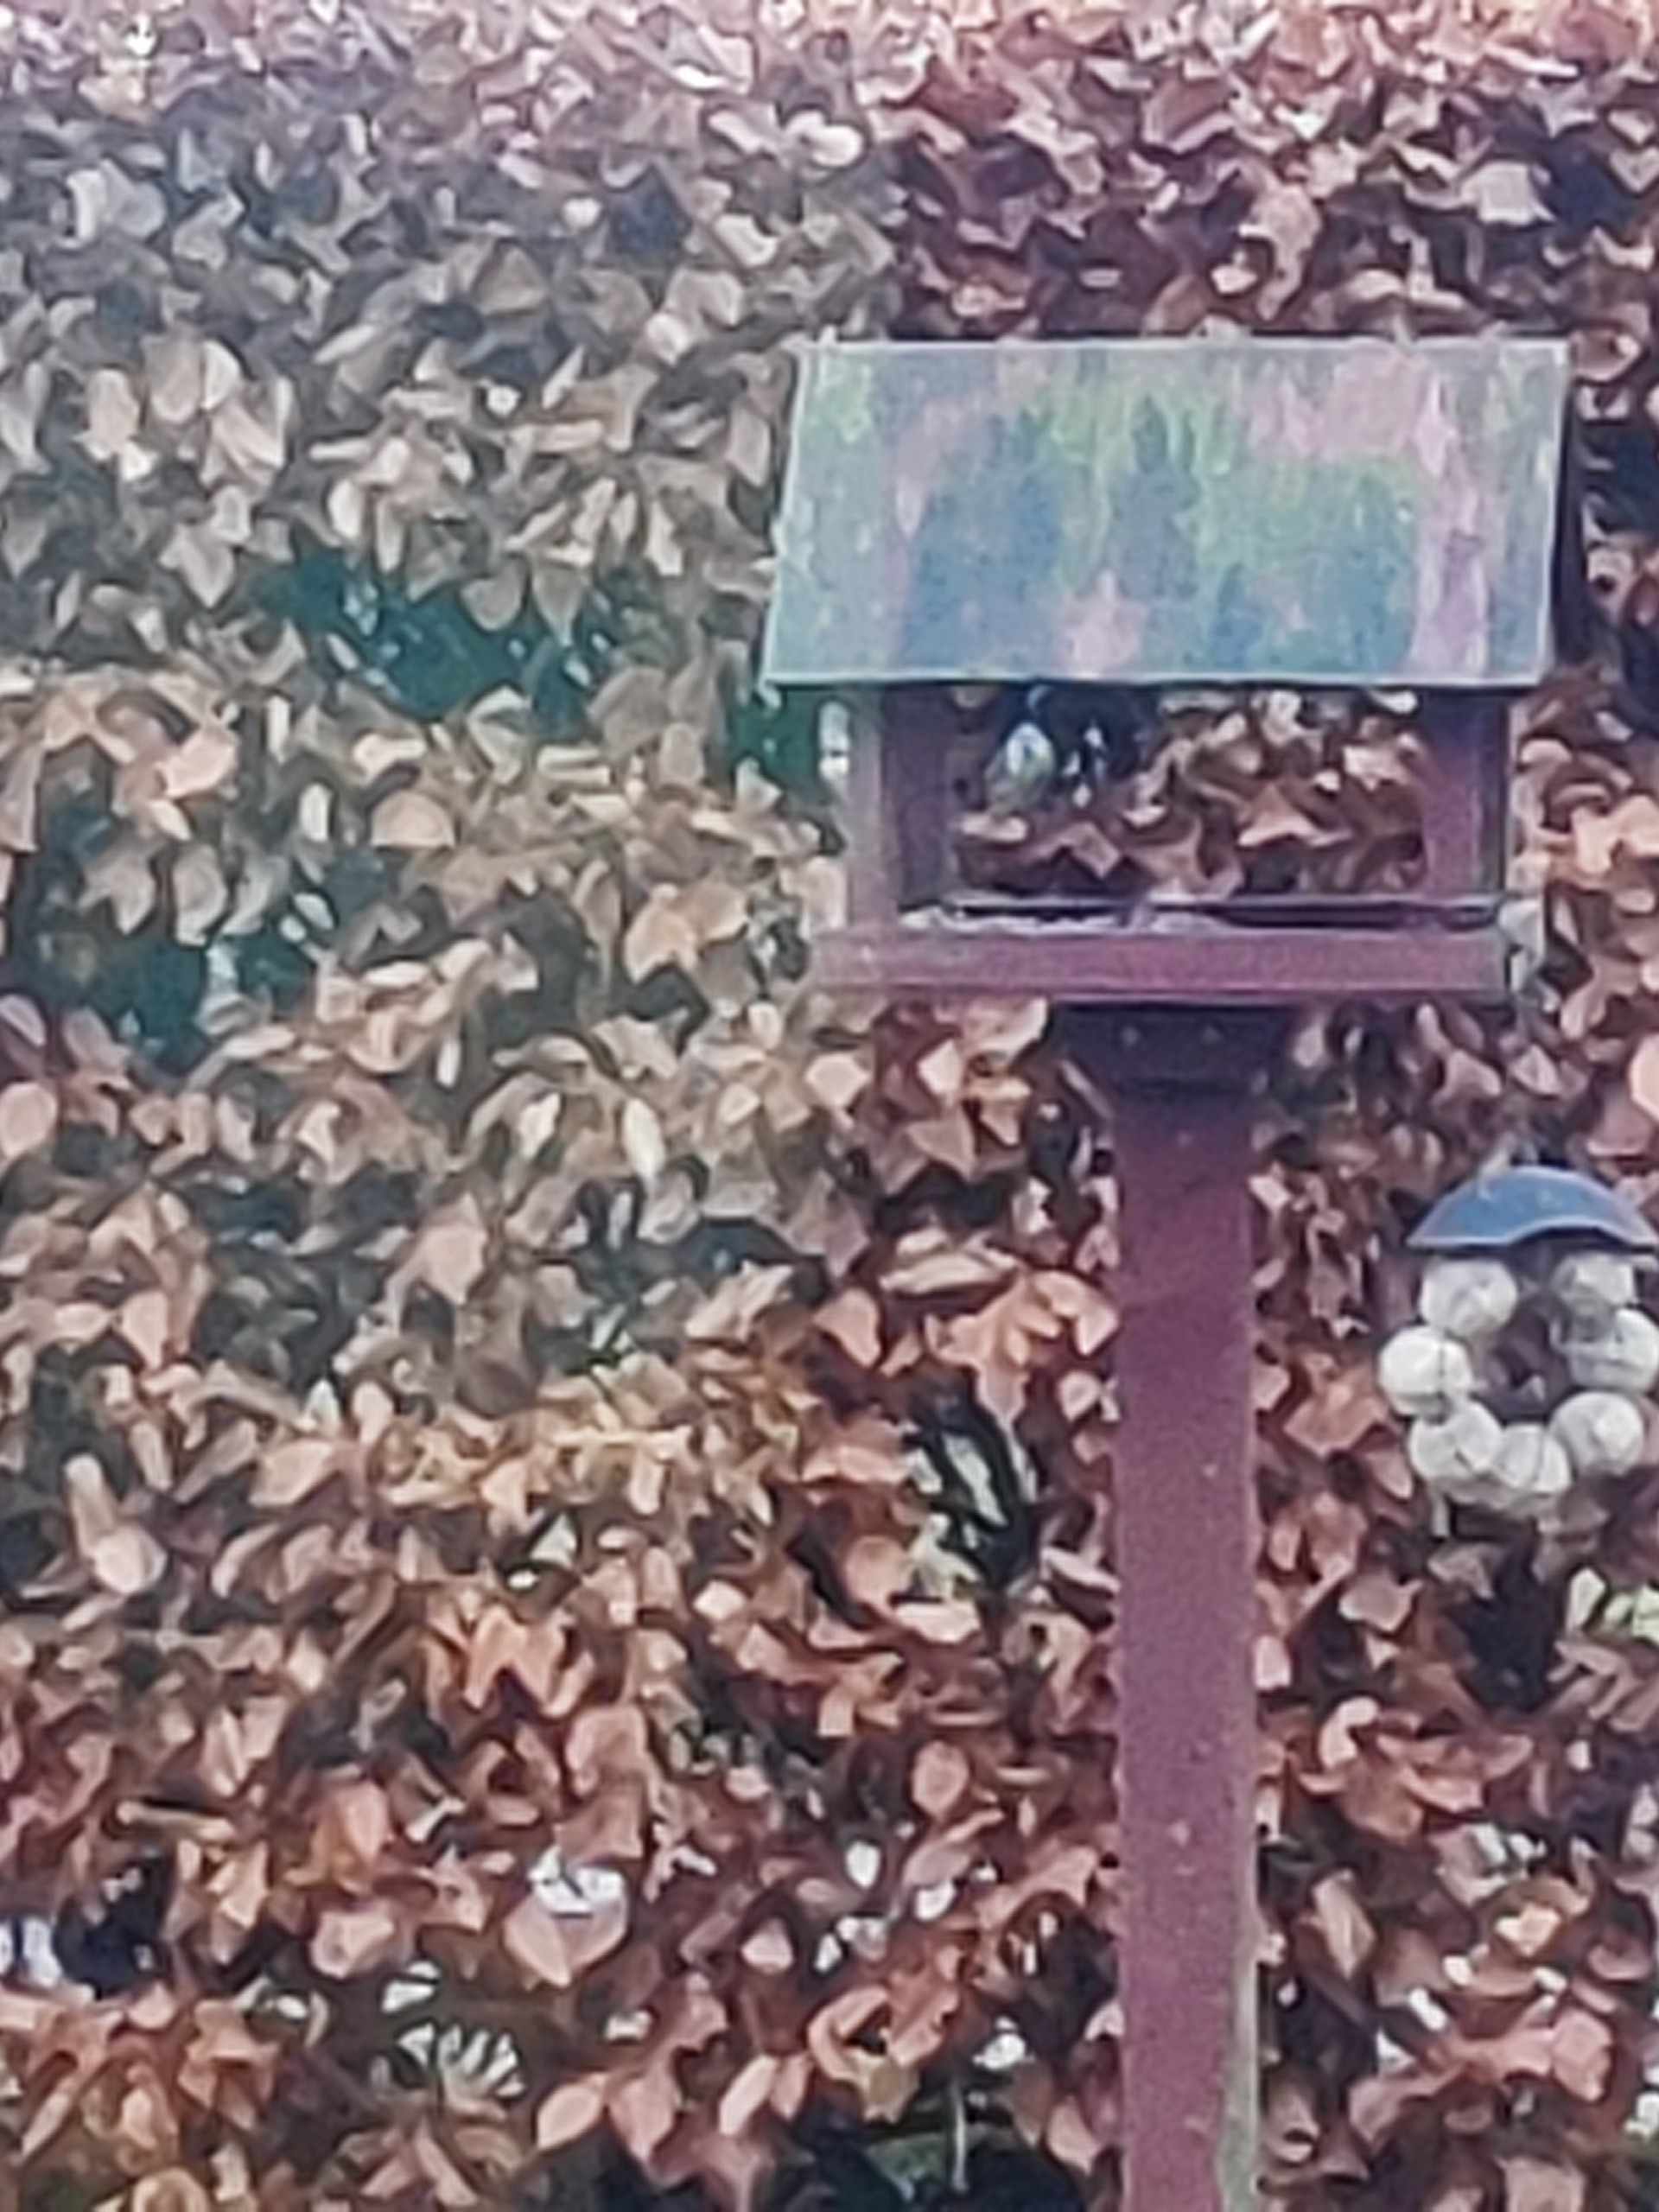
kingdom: Animalia
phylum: Chordata
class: Aves
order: Passeriformes
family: Paridae
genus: Cyanistes
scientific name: Cyanistes caeruleus
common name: Blåmejse
